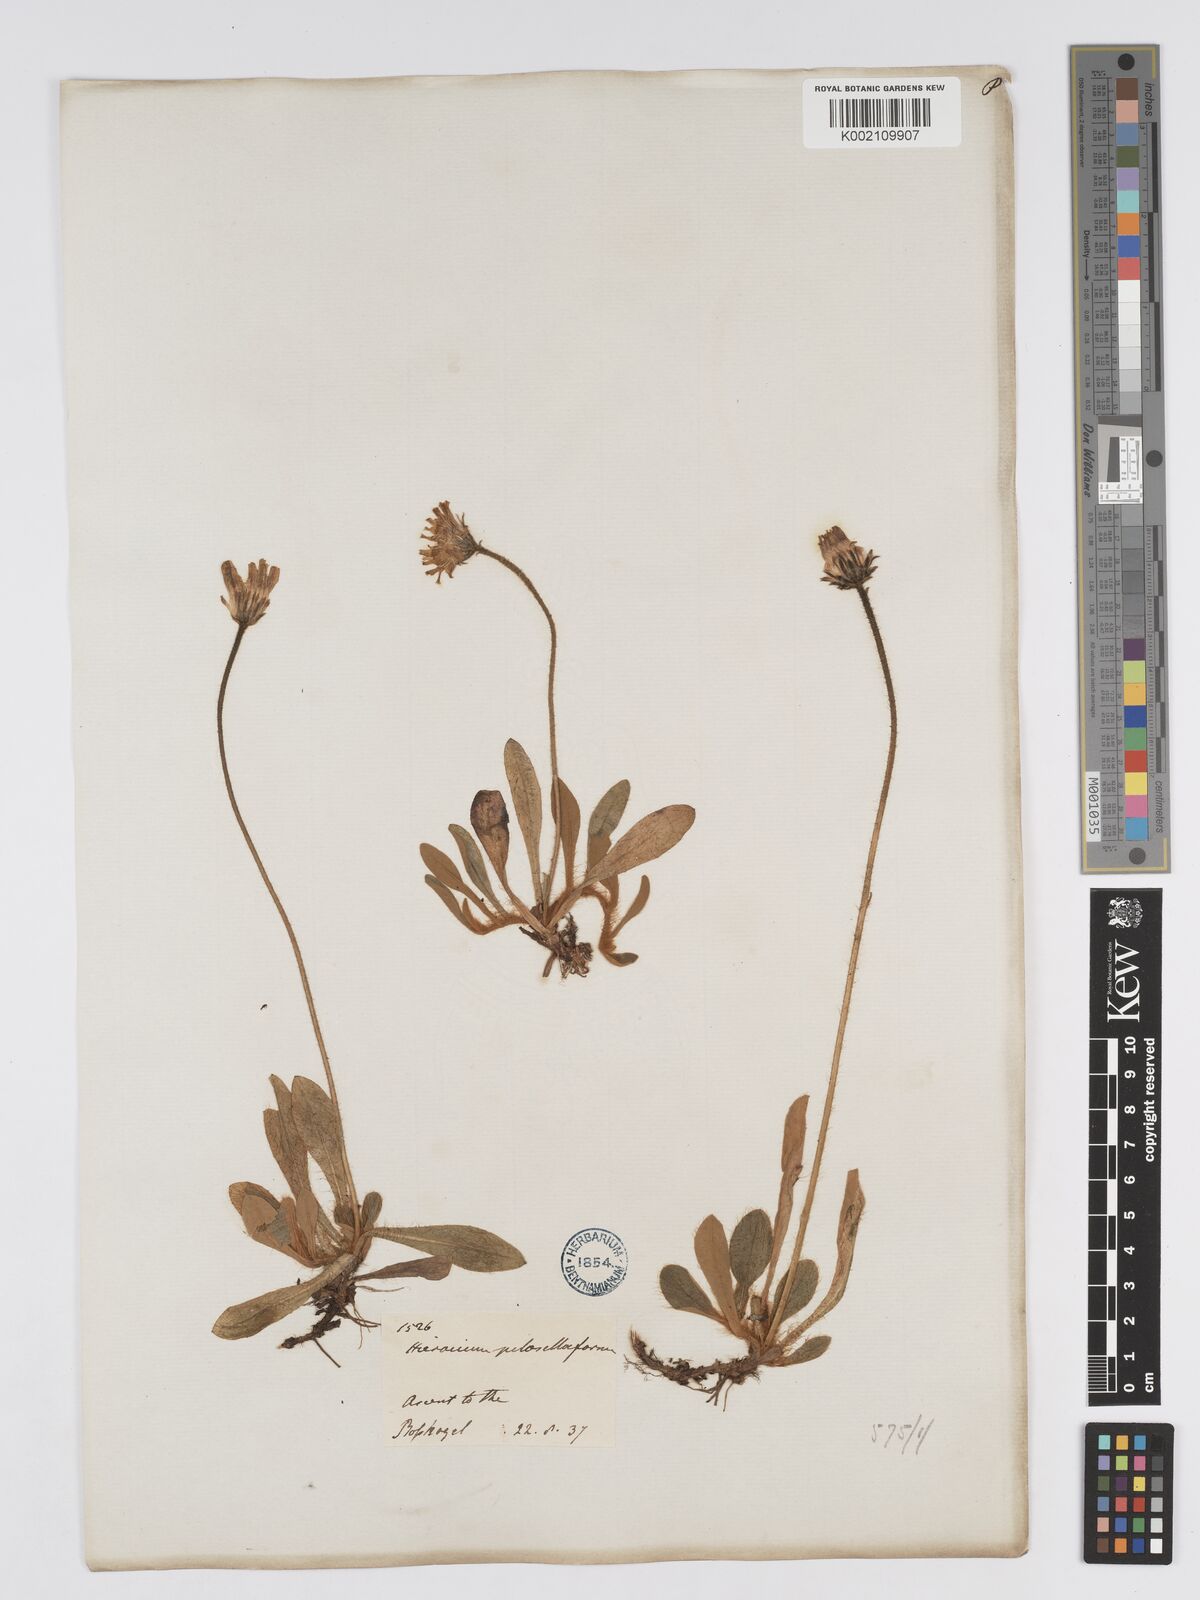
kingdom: Plantae
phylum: Tracheophyta
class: Magnoliopsida
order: Asterales
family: Asteraceae
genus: Pilosella
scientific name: Pilosella hoppeana
